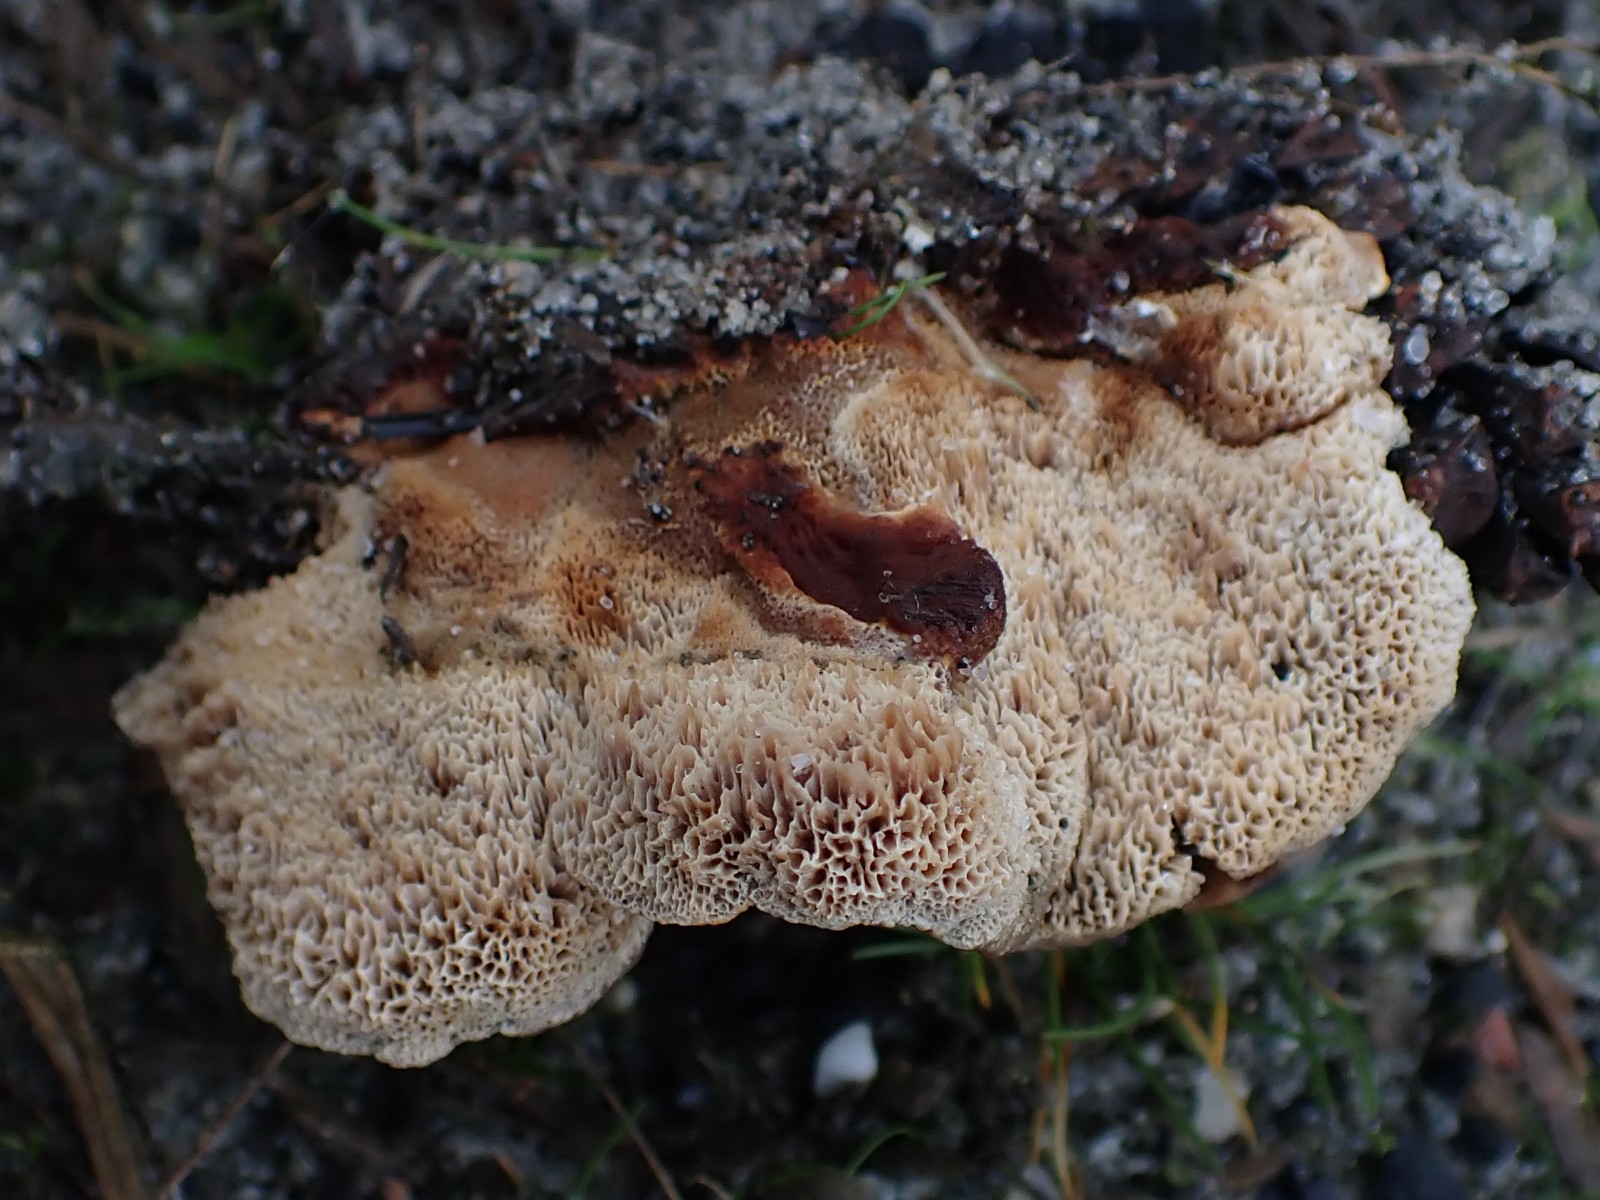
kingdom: Fungi
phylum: Basidiomycota
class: Agaricomycetes
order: Polyporales
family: Ischnodermataceae
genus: Ischnoderma
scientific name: Ischnoderma benzoinum
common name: gran-tjæreporesvamp
